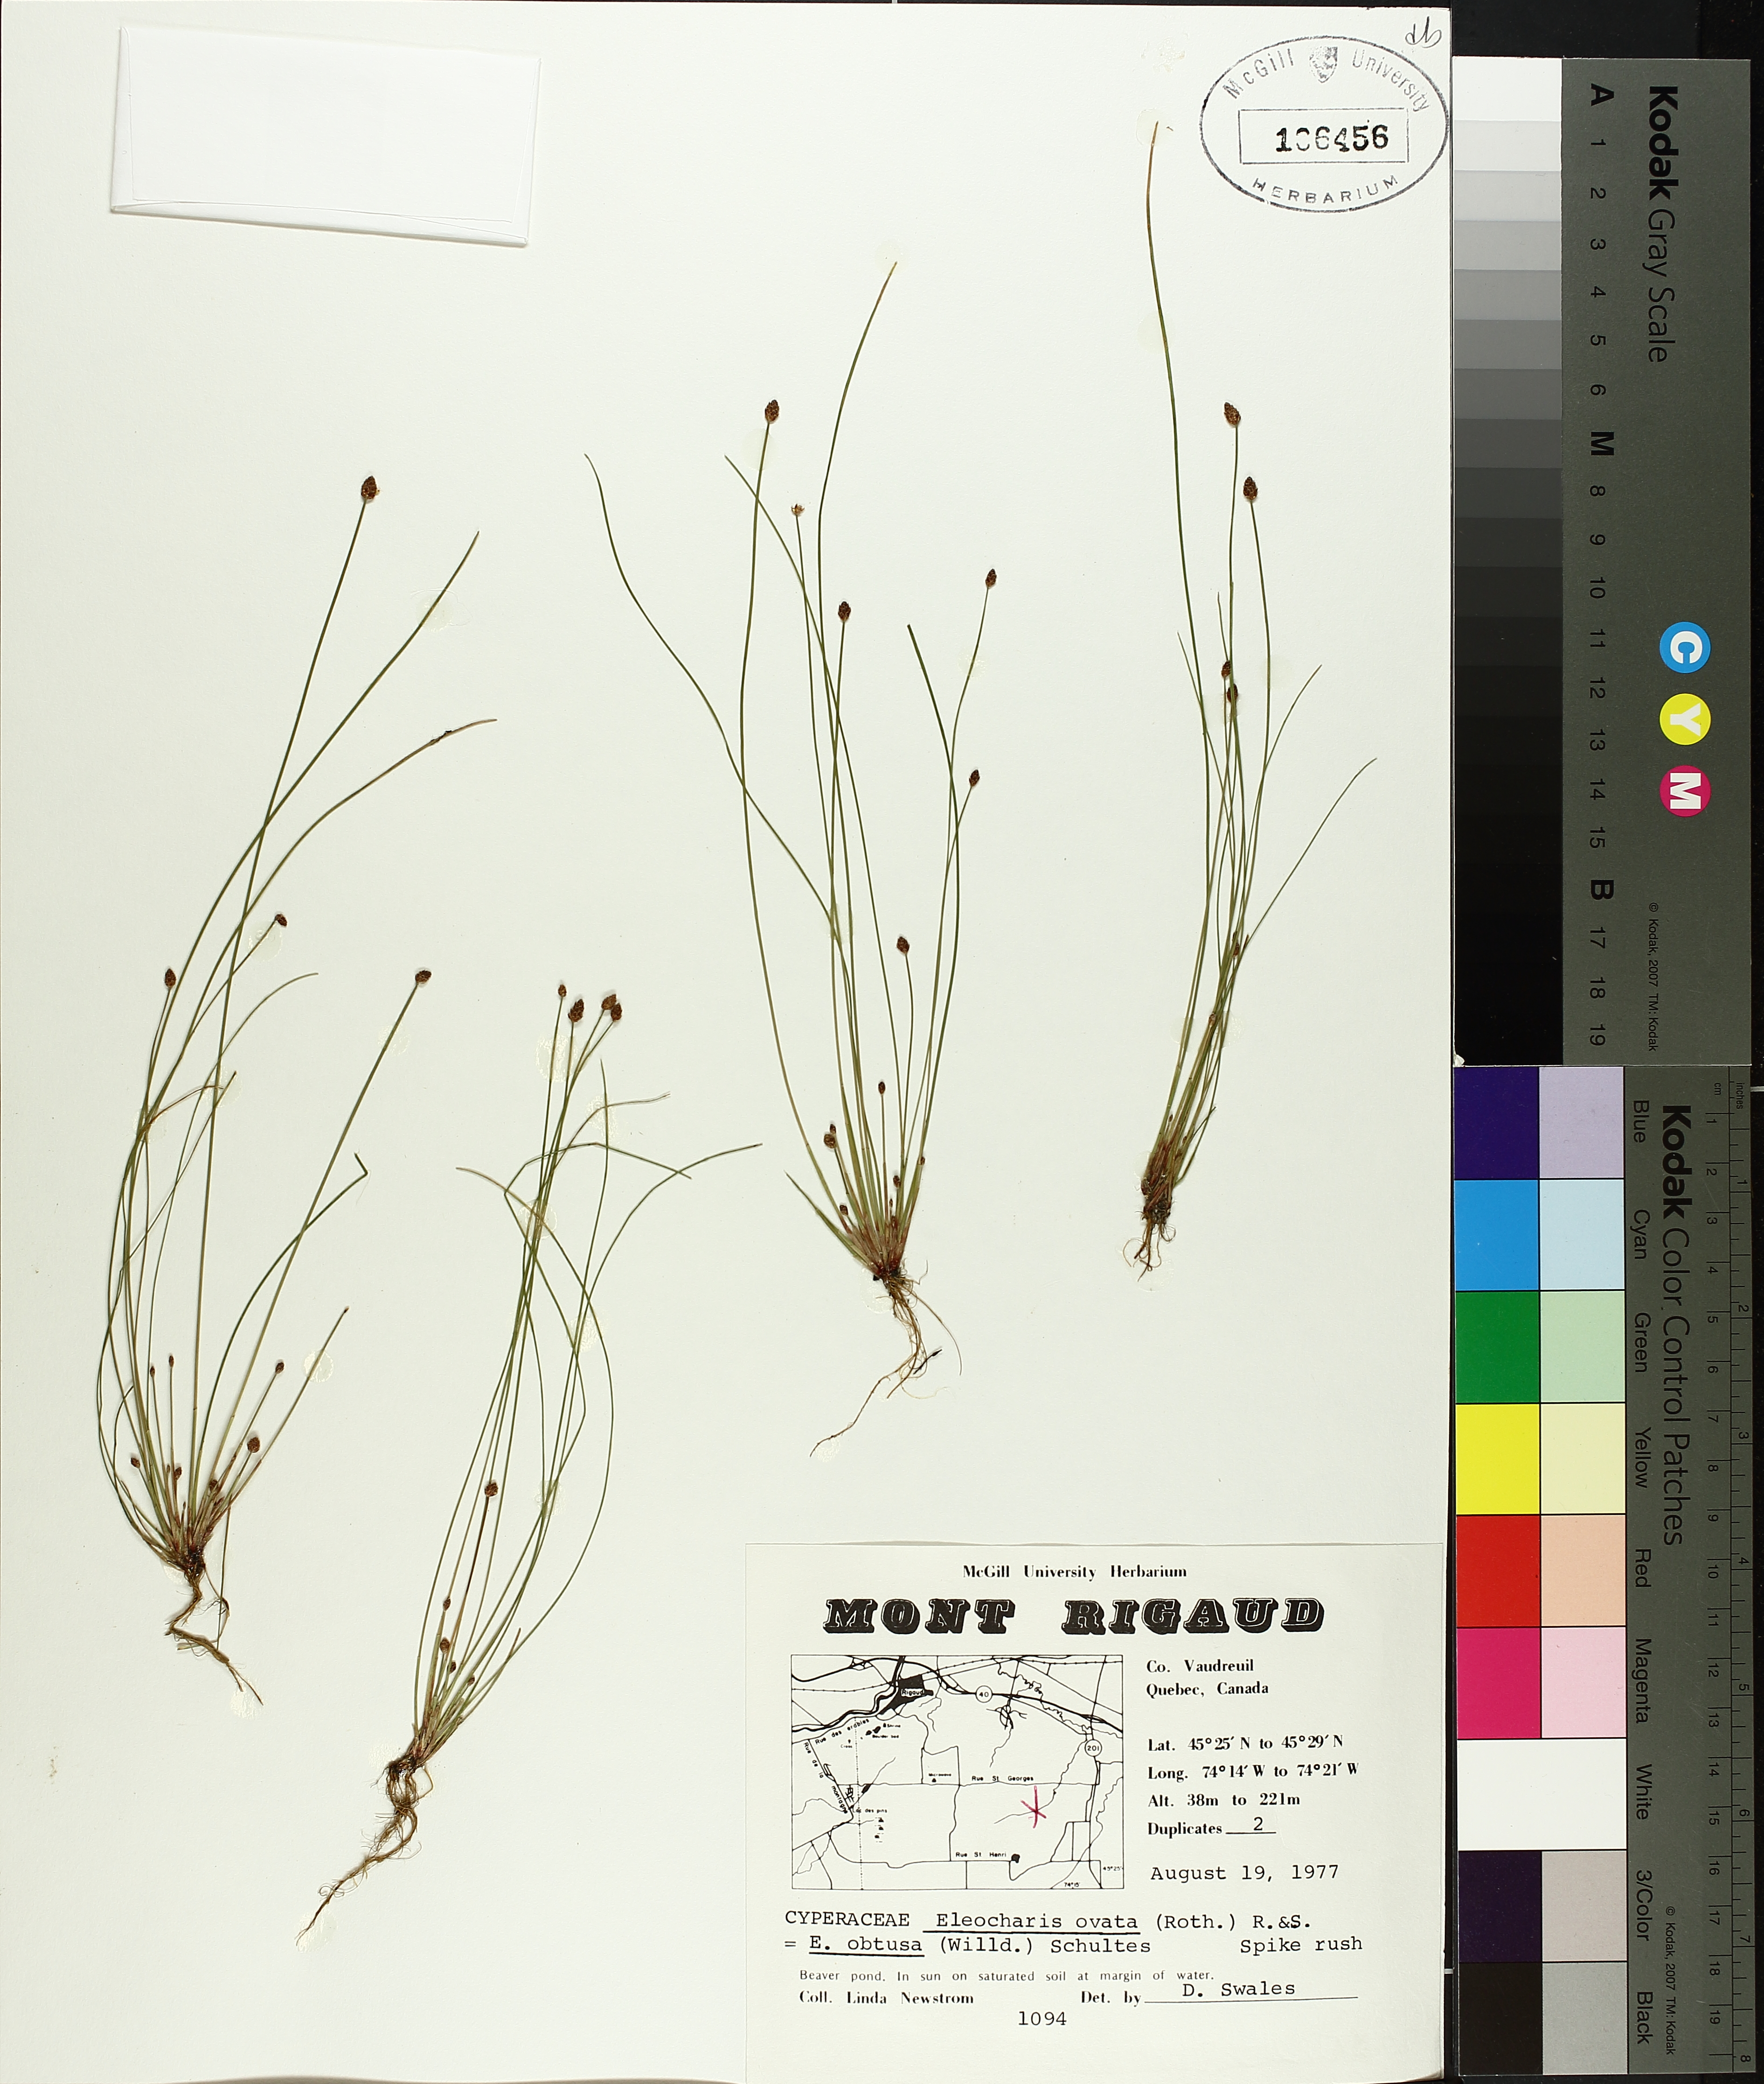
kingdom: Plantae
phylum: Tracheophyta
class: Liliopsida
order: Poales
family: Cyperaceae
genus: Eleocharis
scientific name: Eleocharis obtusa
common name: Blunt spikerush
